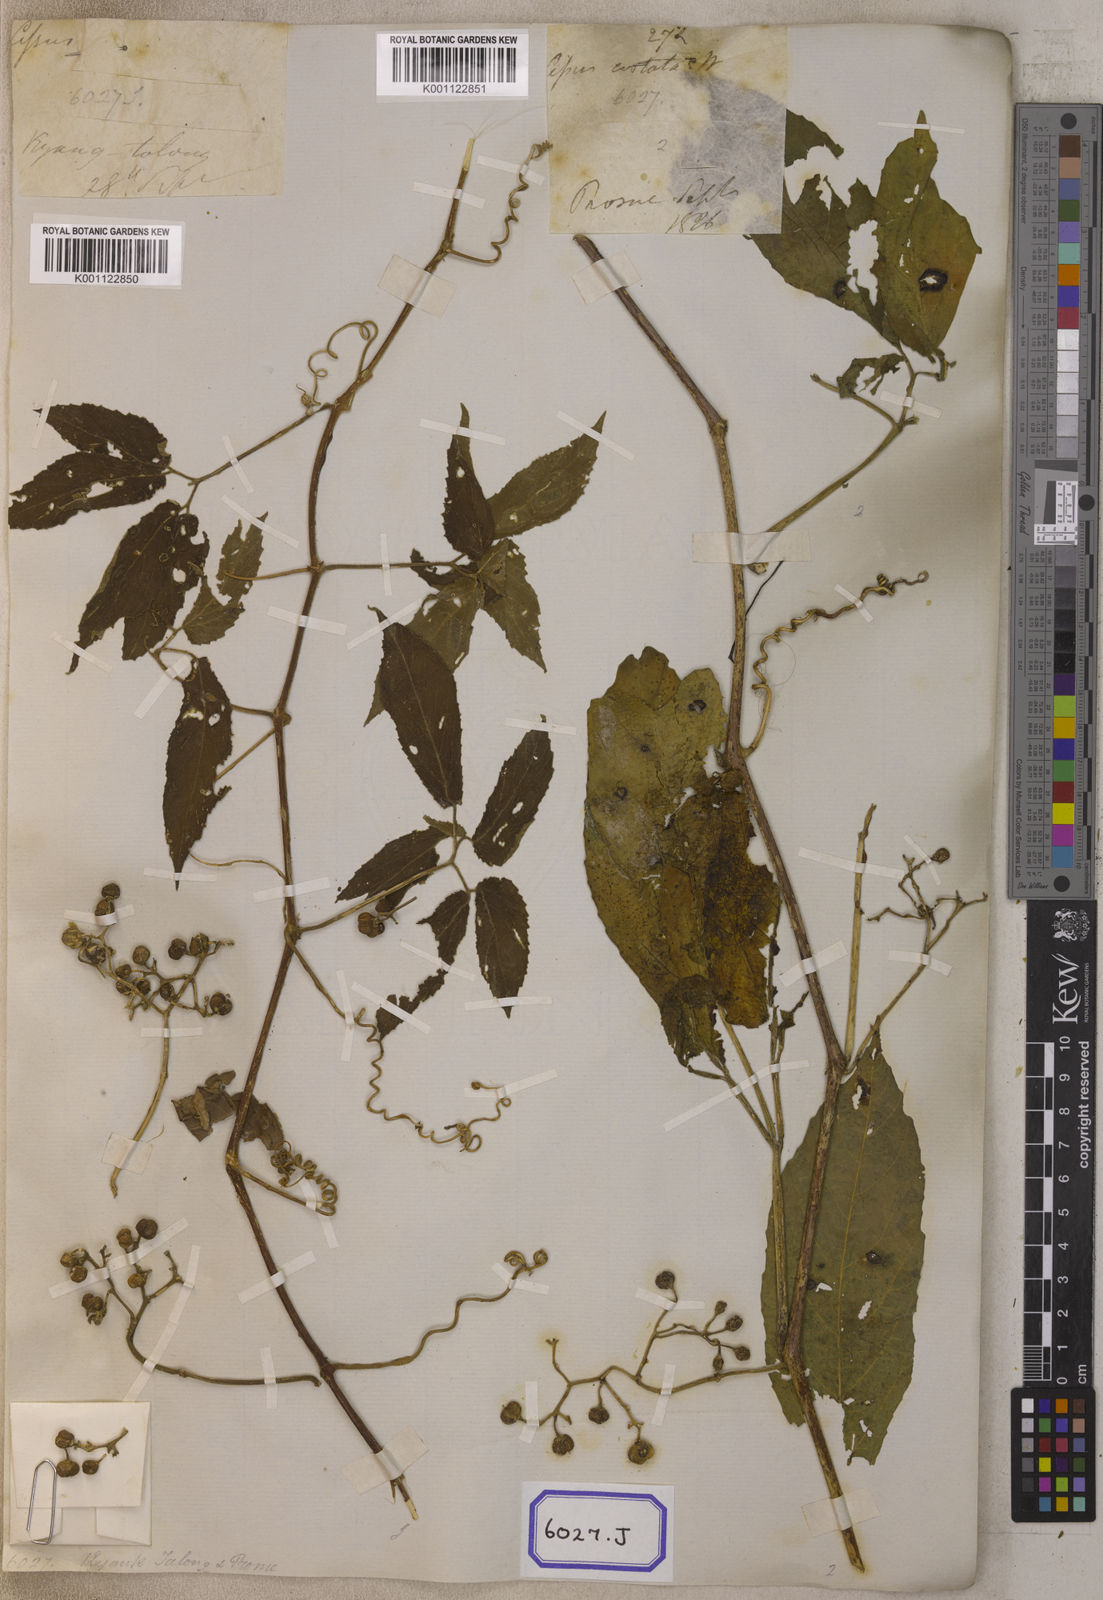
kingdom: Plantae
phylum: Tracheophyta
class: Magnoliopsida
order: Vitales
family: Vitaceae
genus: Cayratia
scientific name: Cayratia pedata
